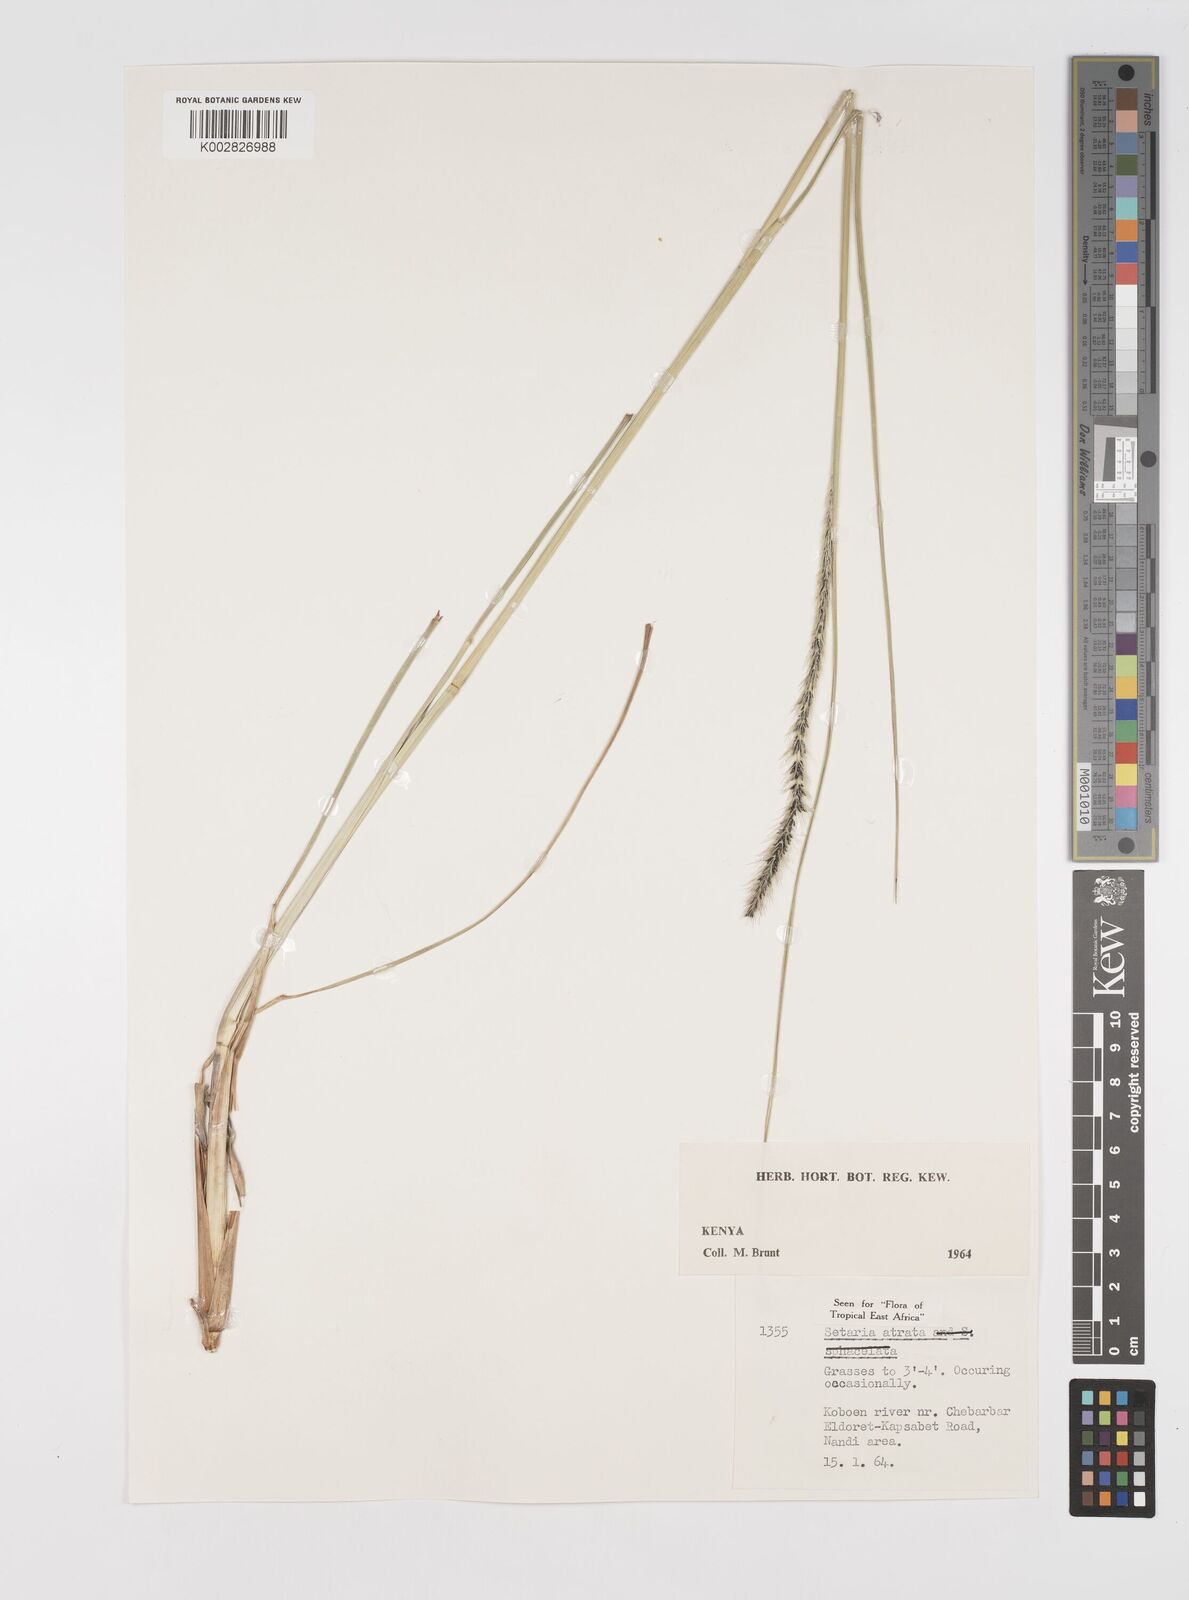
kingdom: Plantae
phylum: Tracheophyta
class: Liliopsida
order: Poales
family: Poaceae
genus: Setaria
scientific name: Setaria atrata
